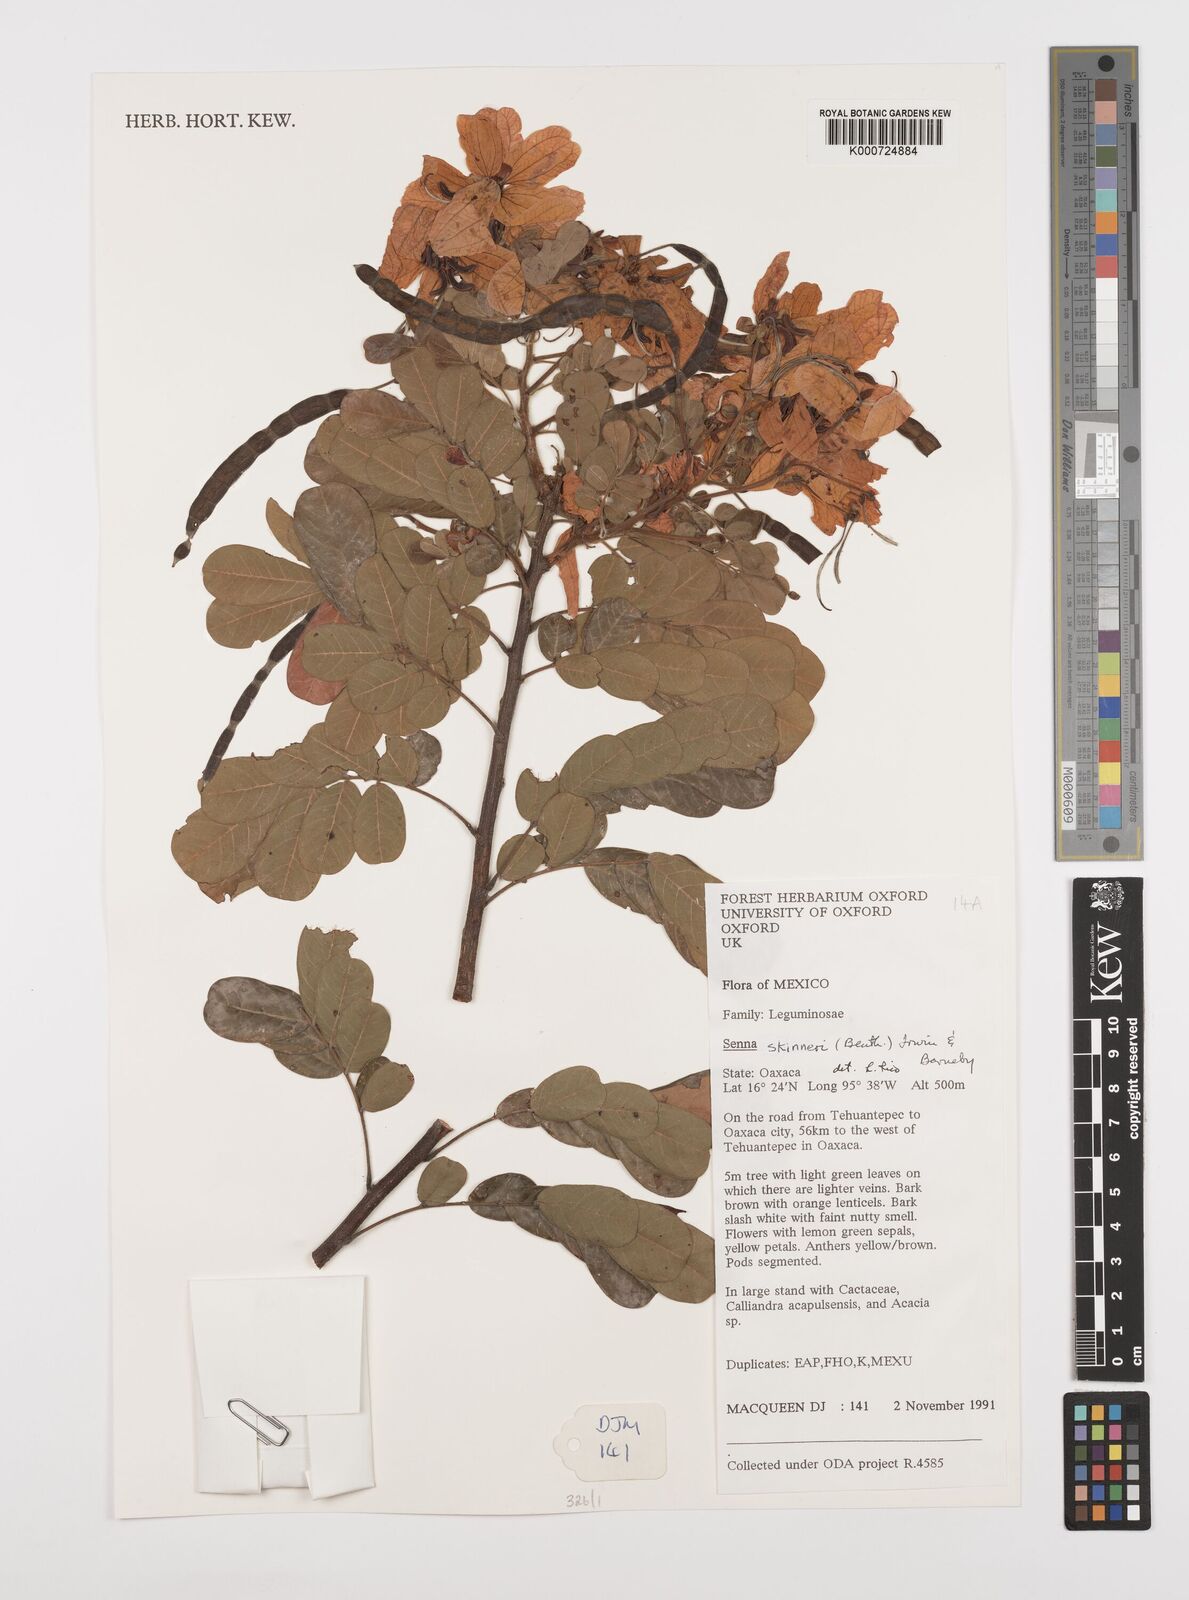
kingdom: Plantae
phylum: Tracheophyta
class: Magnoliopsida
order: Fabales
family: Fabaceae
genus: Senna
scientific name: Senna skinneri
